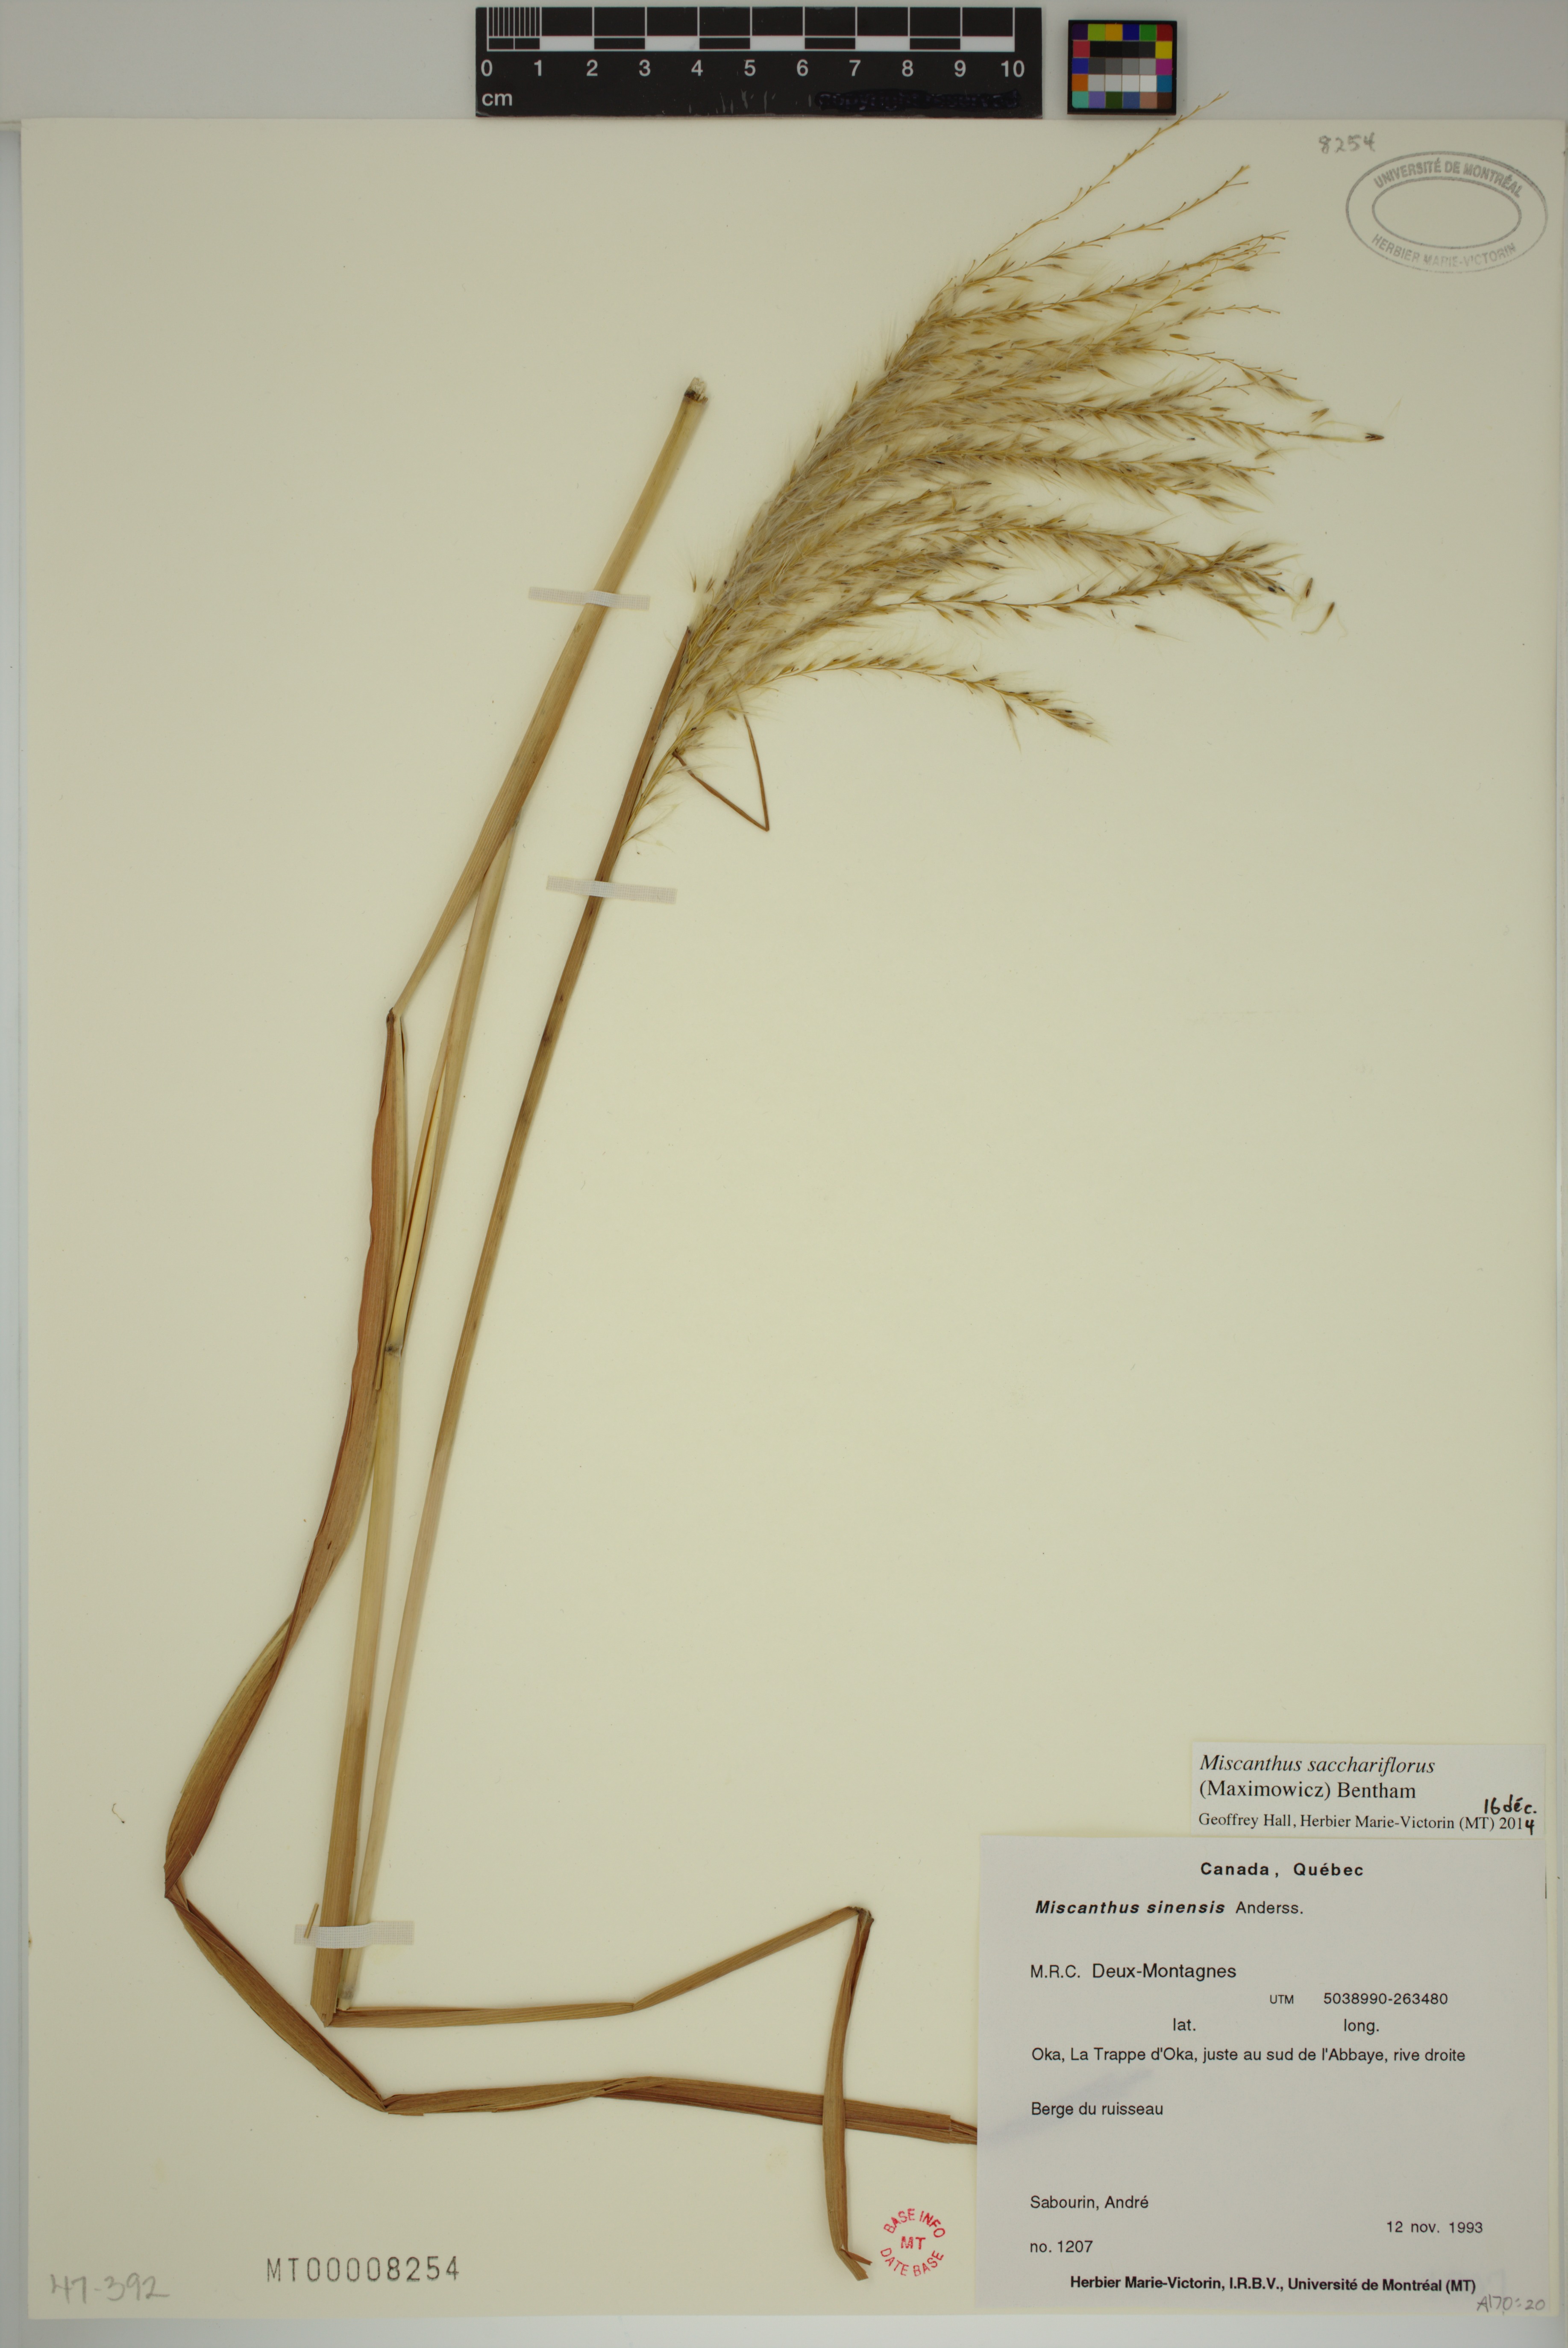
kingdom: Plantae
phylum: Tracheophyta
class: Liliopsida
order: Poales
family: Poaceae
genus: Miscanthus
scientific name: Miscanthus sacchariflorus
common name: Amur silver grass
